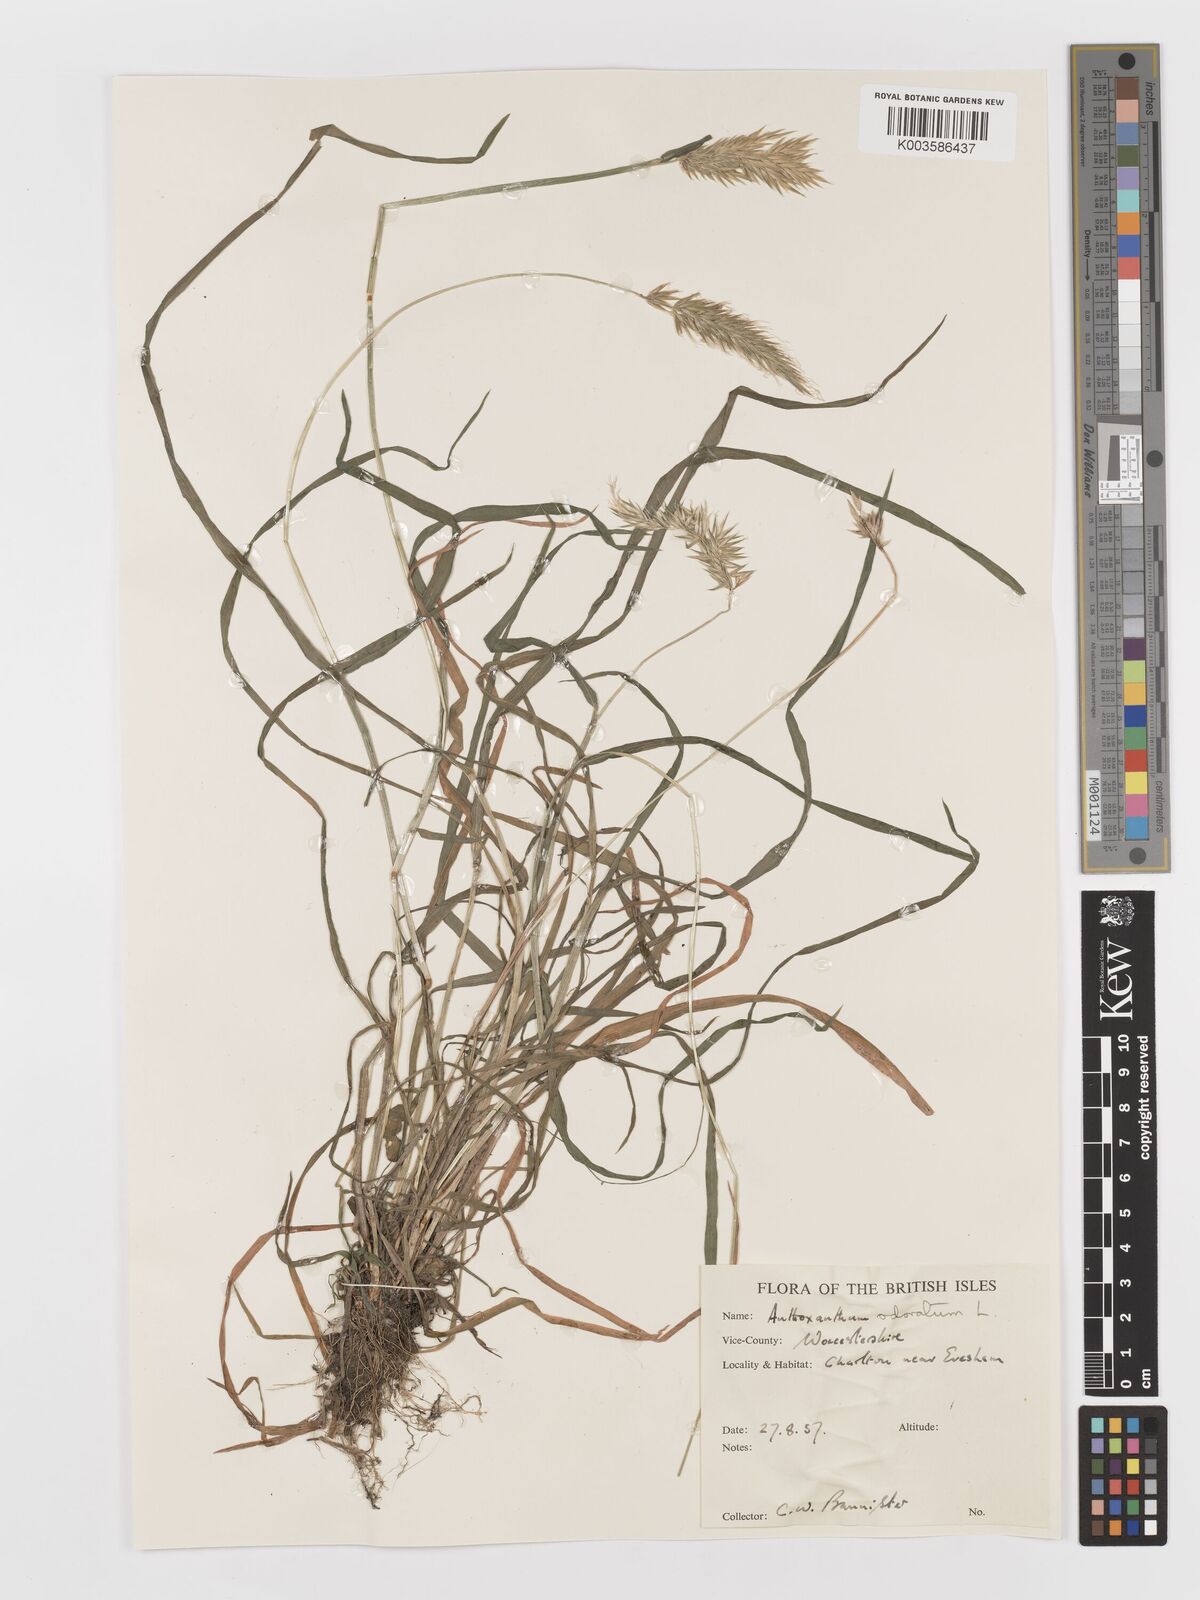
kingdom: Plantae
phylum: Tracheophyta
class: Liliopsida
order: Poales
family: Poaceae
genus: Anthoxanthum
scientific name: Anthoxanthum odoratum
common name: Sweet vernalgrass
